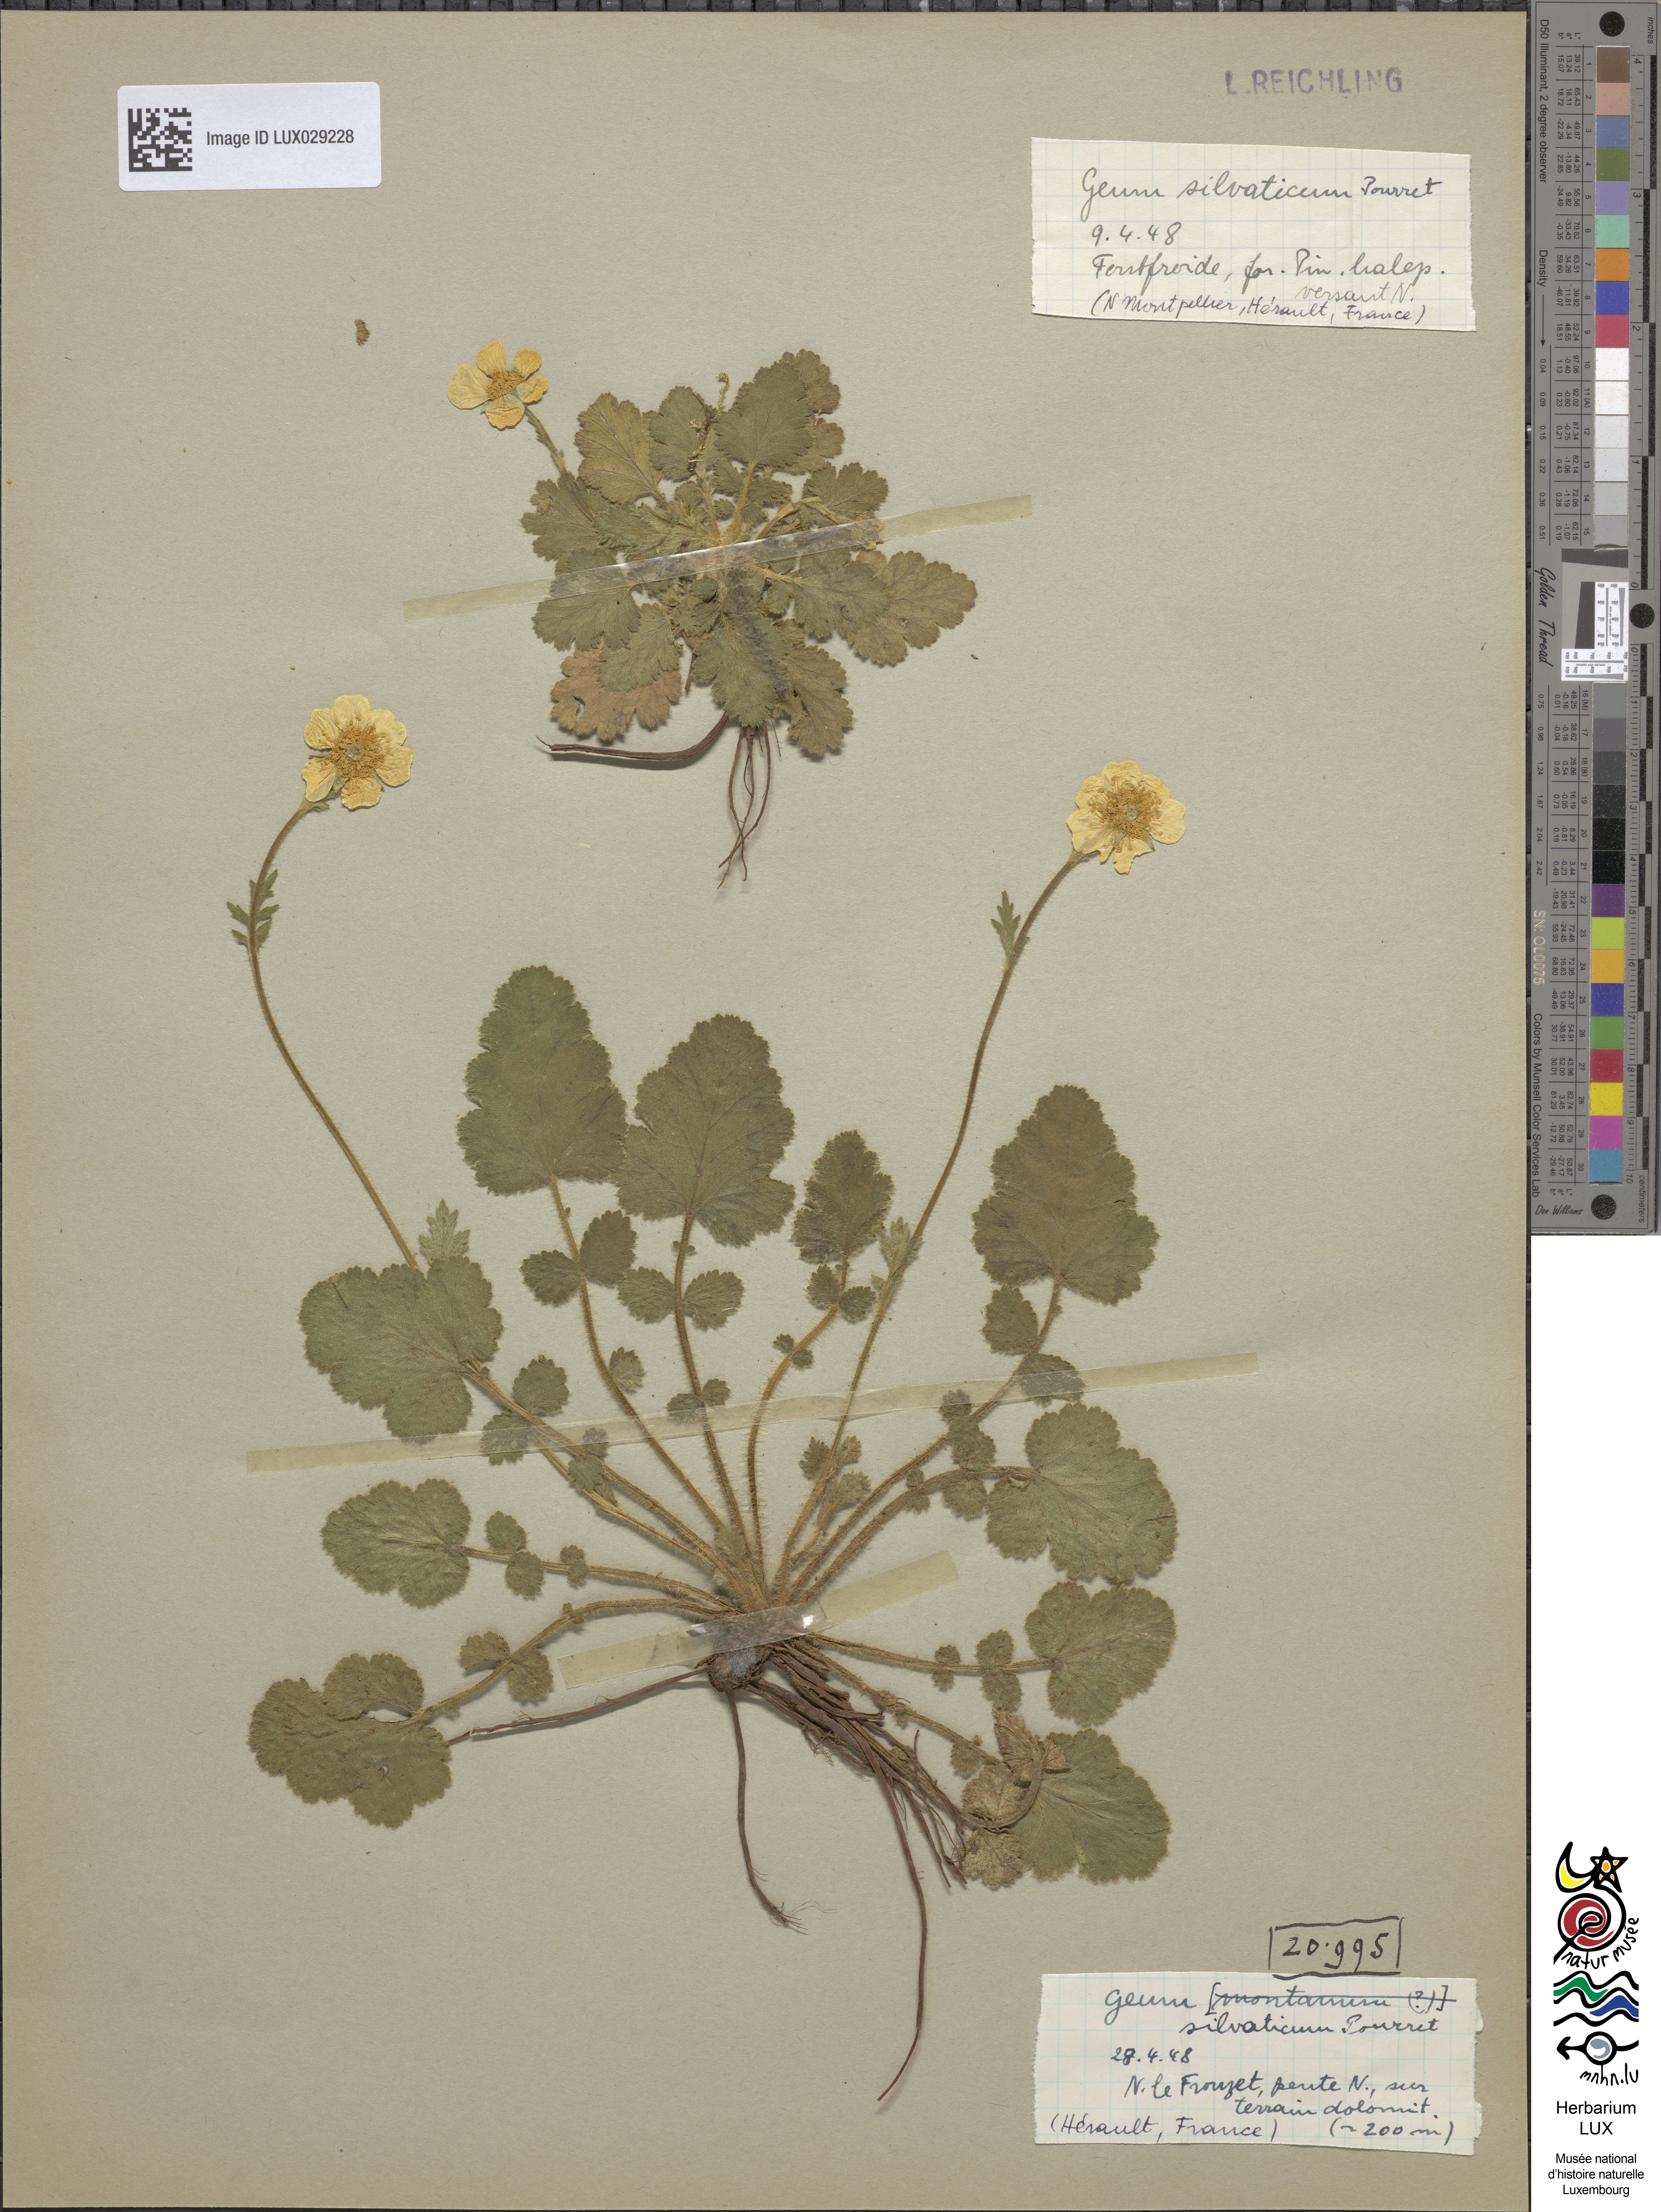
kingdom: Plantae
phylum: Tracheophyta
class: Magnoliopsida
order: Rosales
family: Rosaceae
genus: Geum
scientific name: Geum sylvaticum
